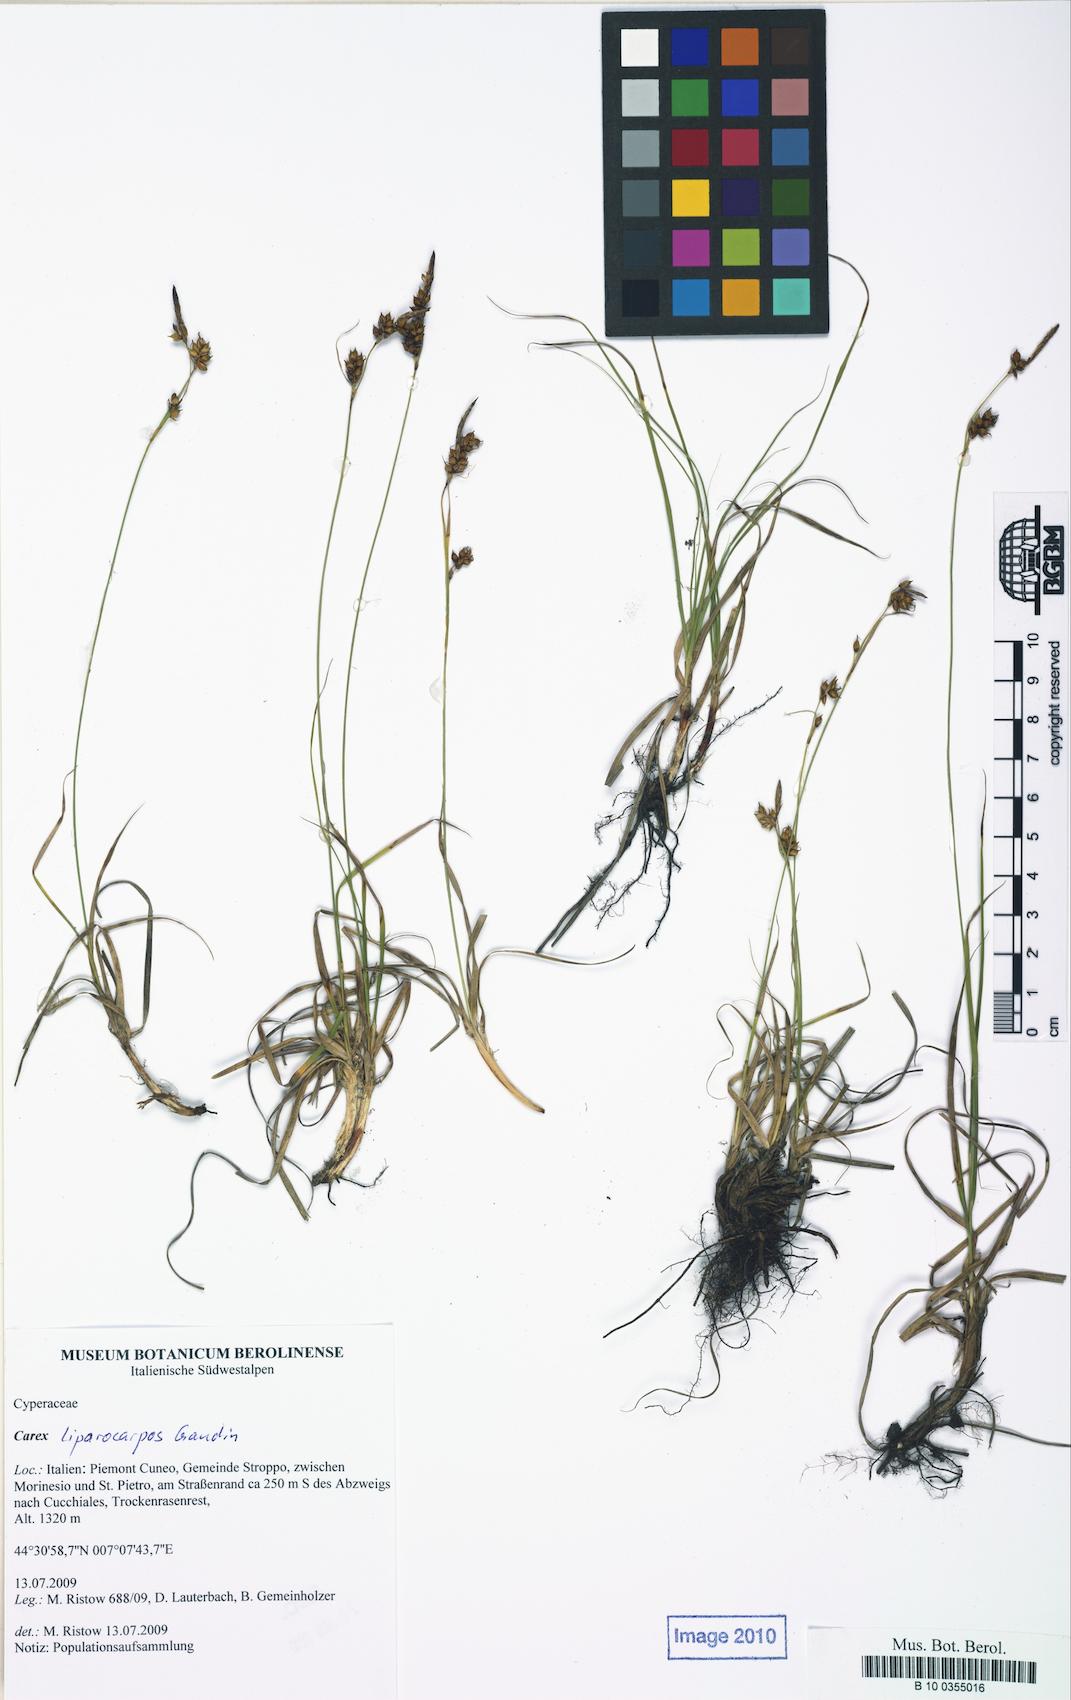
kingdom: Plantae
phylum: Tracheophyta
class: Liliopsida
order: Poales
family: Cyperaceae
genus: Carex
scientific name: Carex liparocarpos
